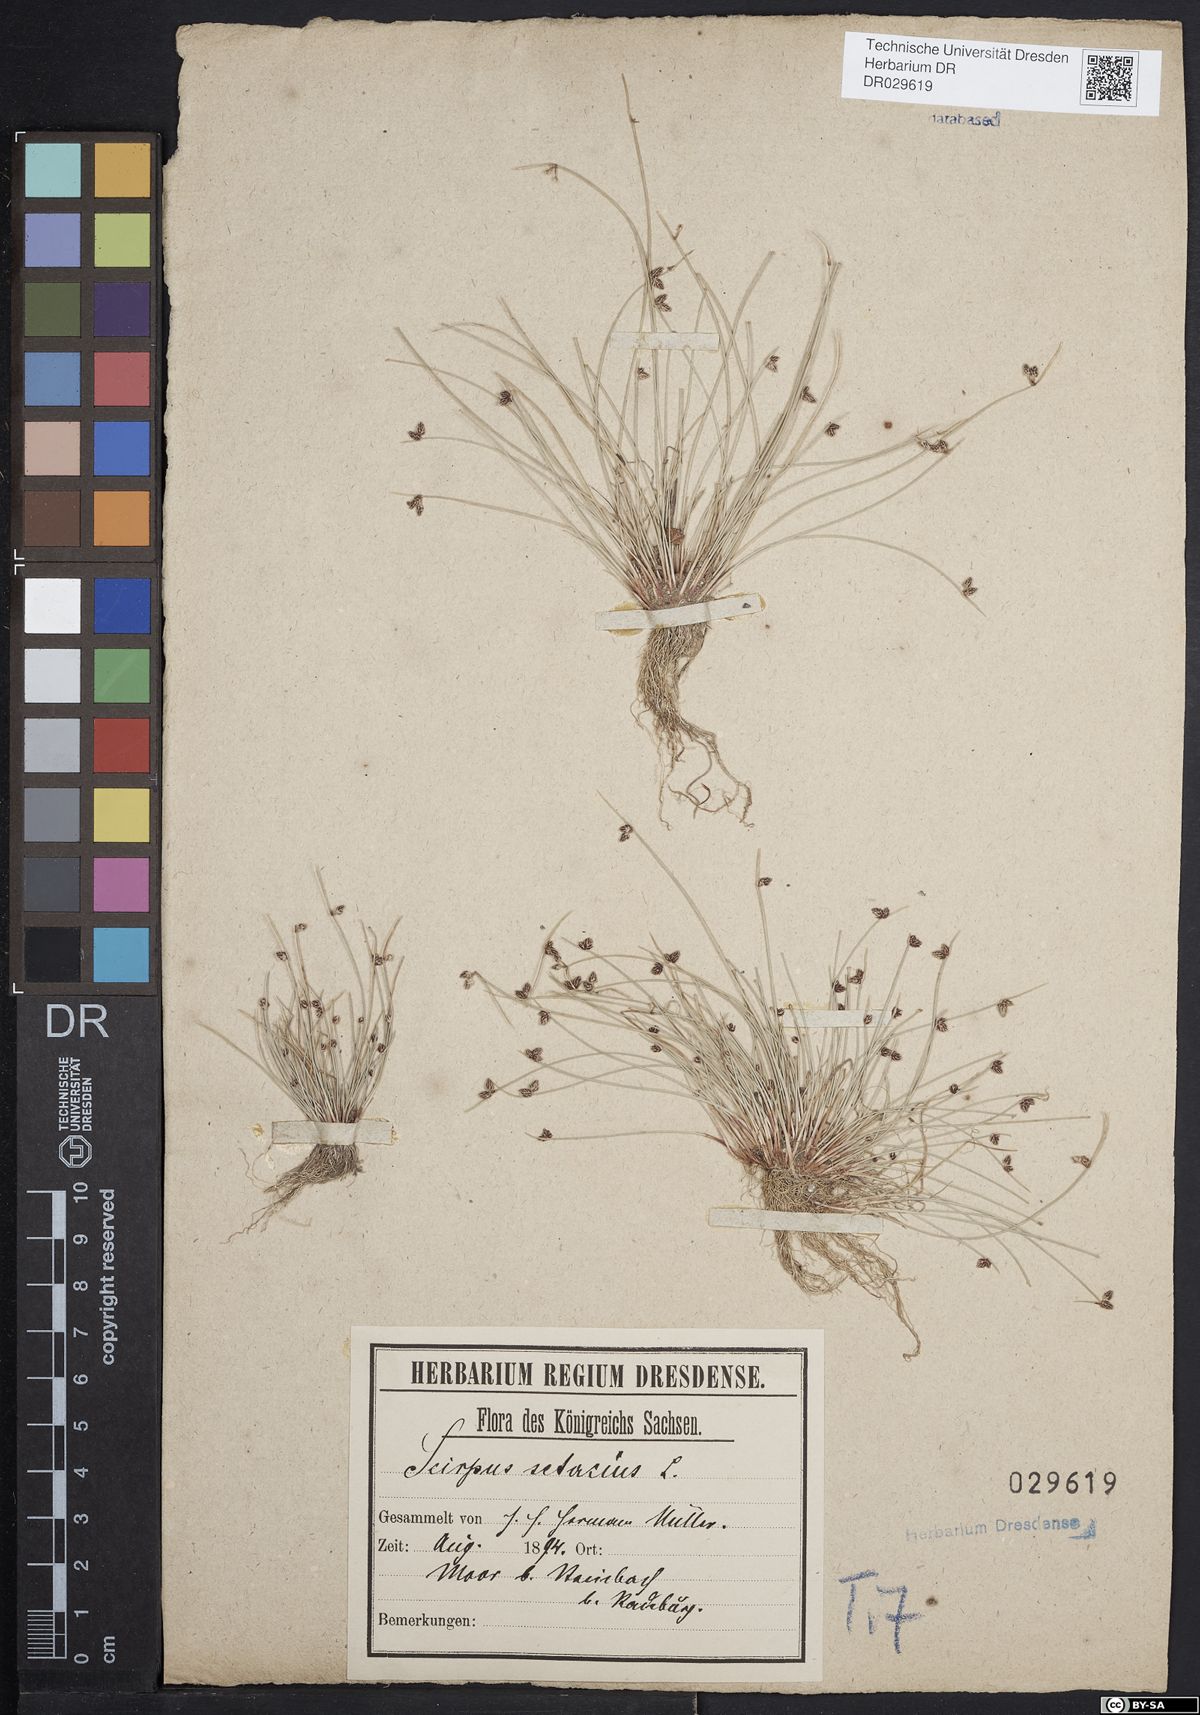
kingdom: Plantae
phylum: Tracheophyta
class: Liliopsida
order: Poales
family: Cyperaceae
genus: Isolepis
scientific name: Isolepis setacea
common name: Bristle club-rush
